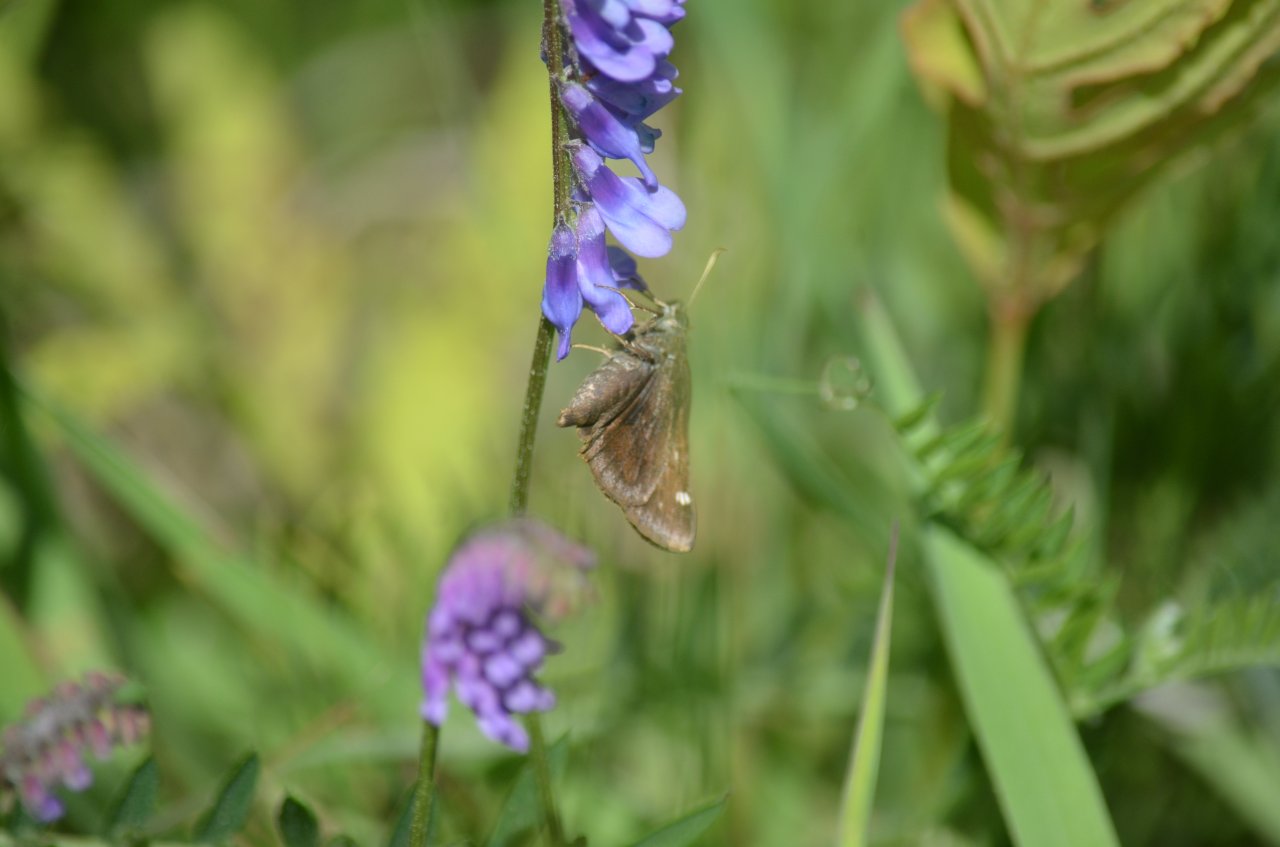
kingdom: Animalia
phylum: Arthropoda
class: Insecta
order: Lepidoptera
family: Hesperiidae
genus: Lon
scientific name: Lon hobomok
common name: Hobomok Skipper
